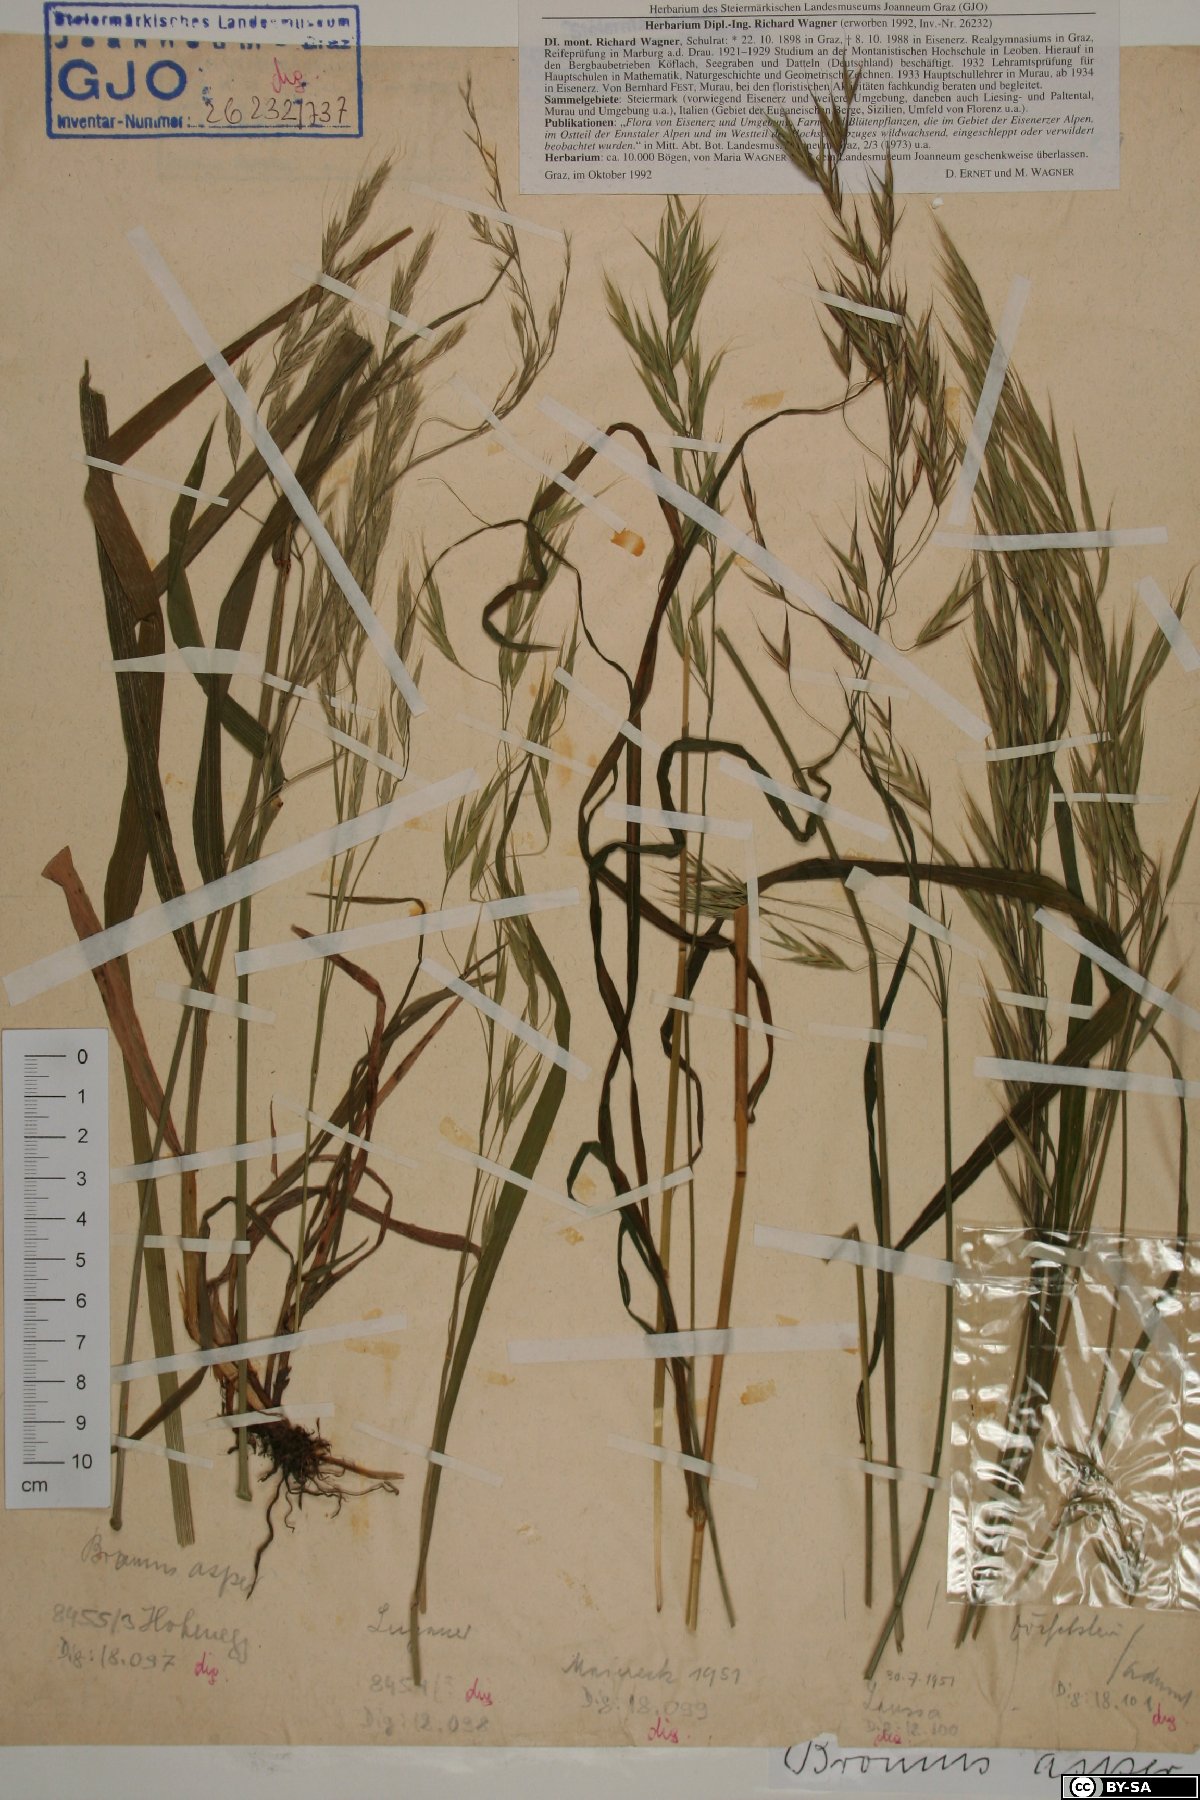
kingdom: Plantae
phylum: Tracheophyta
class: Liliopsida
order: Poales
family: Poaceae
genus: Bromus
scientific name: Bromus ramosus
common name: Hairy brome
